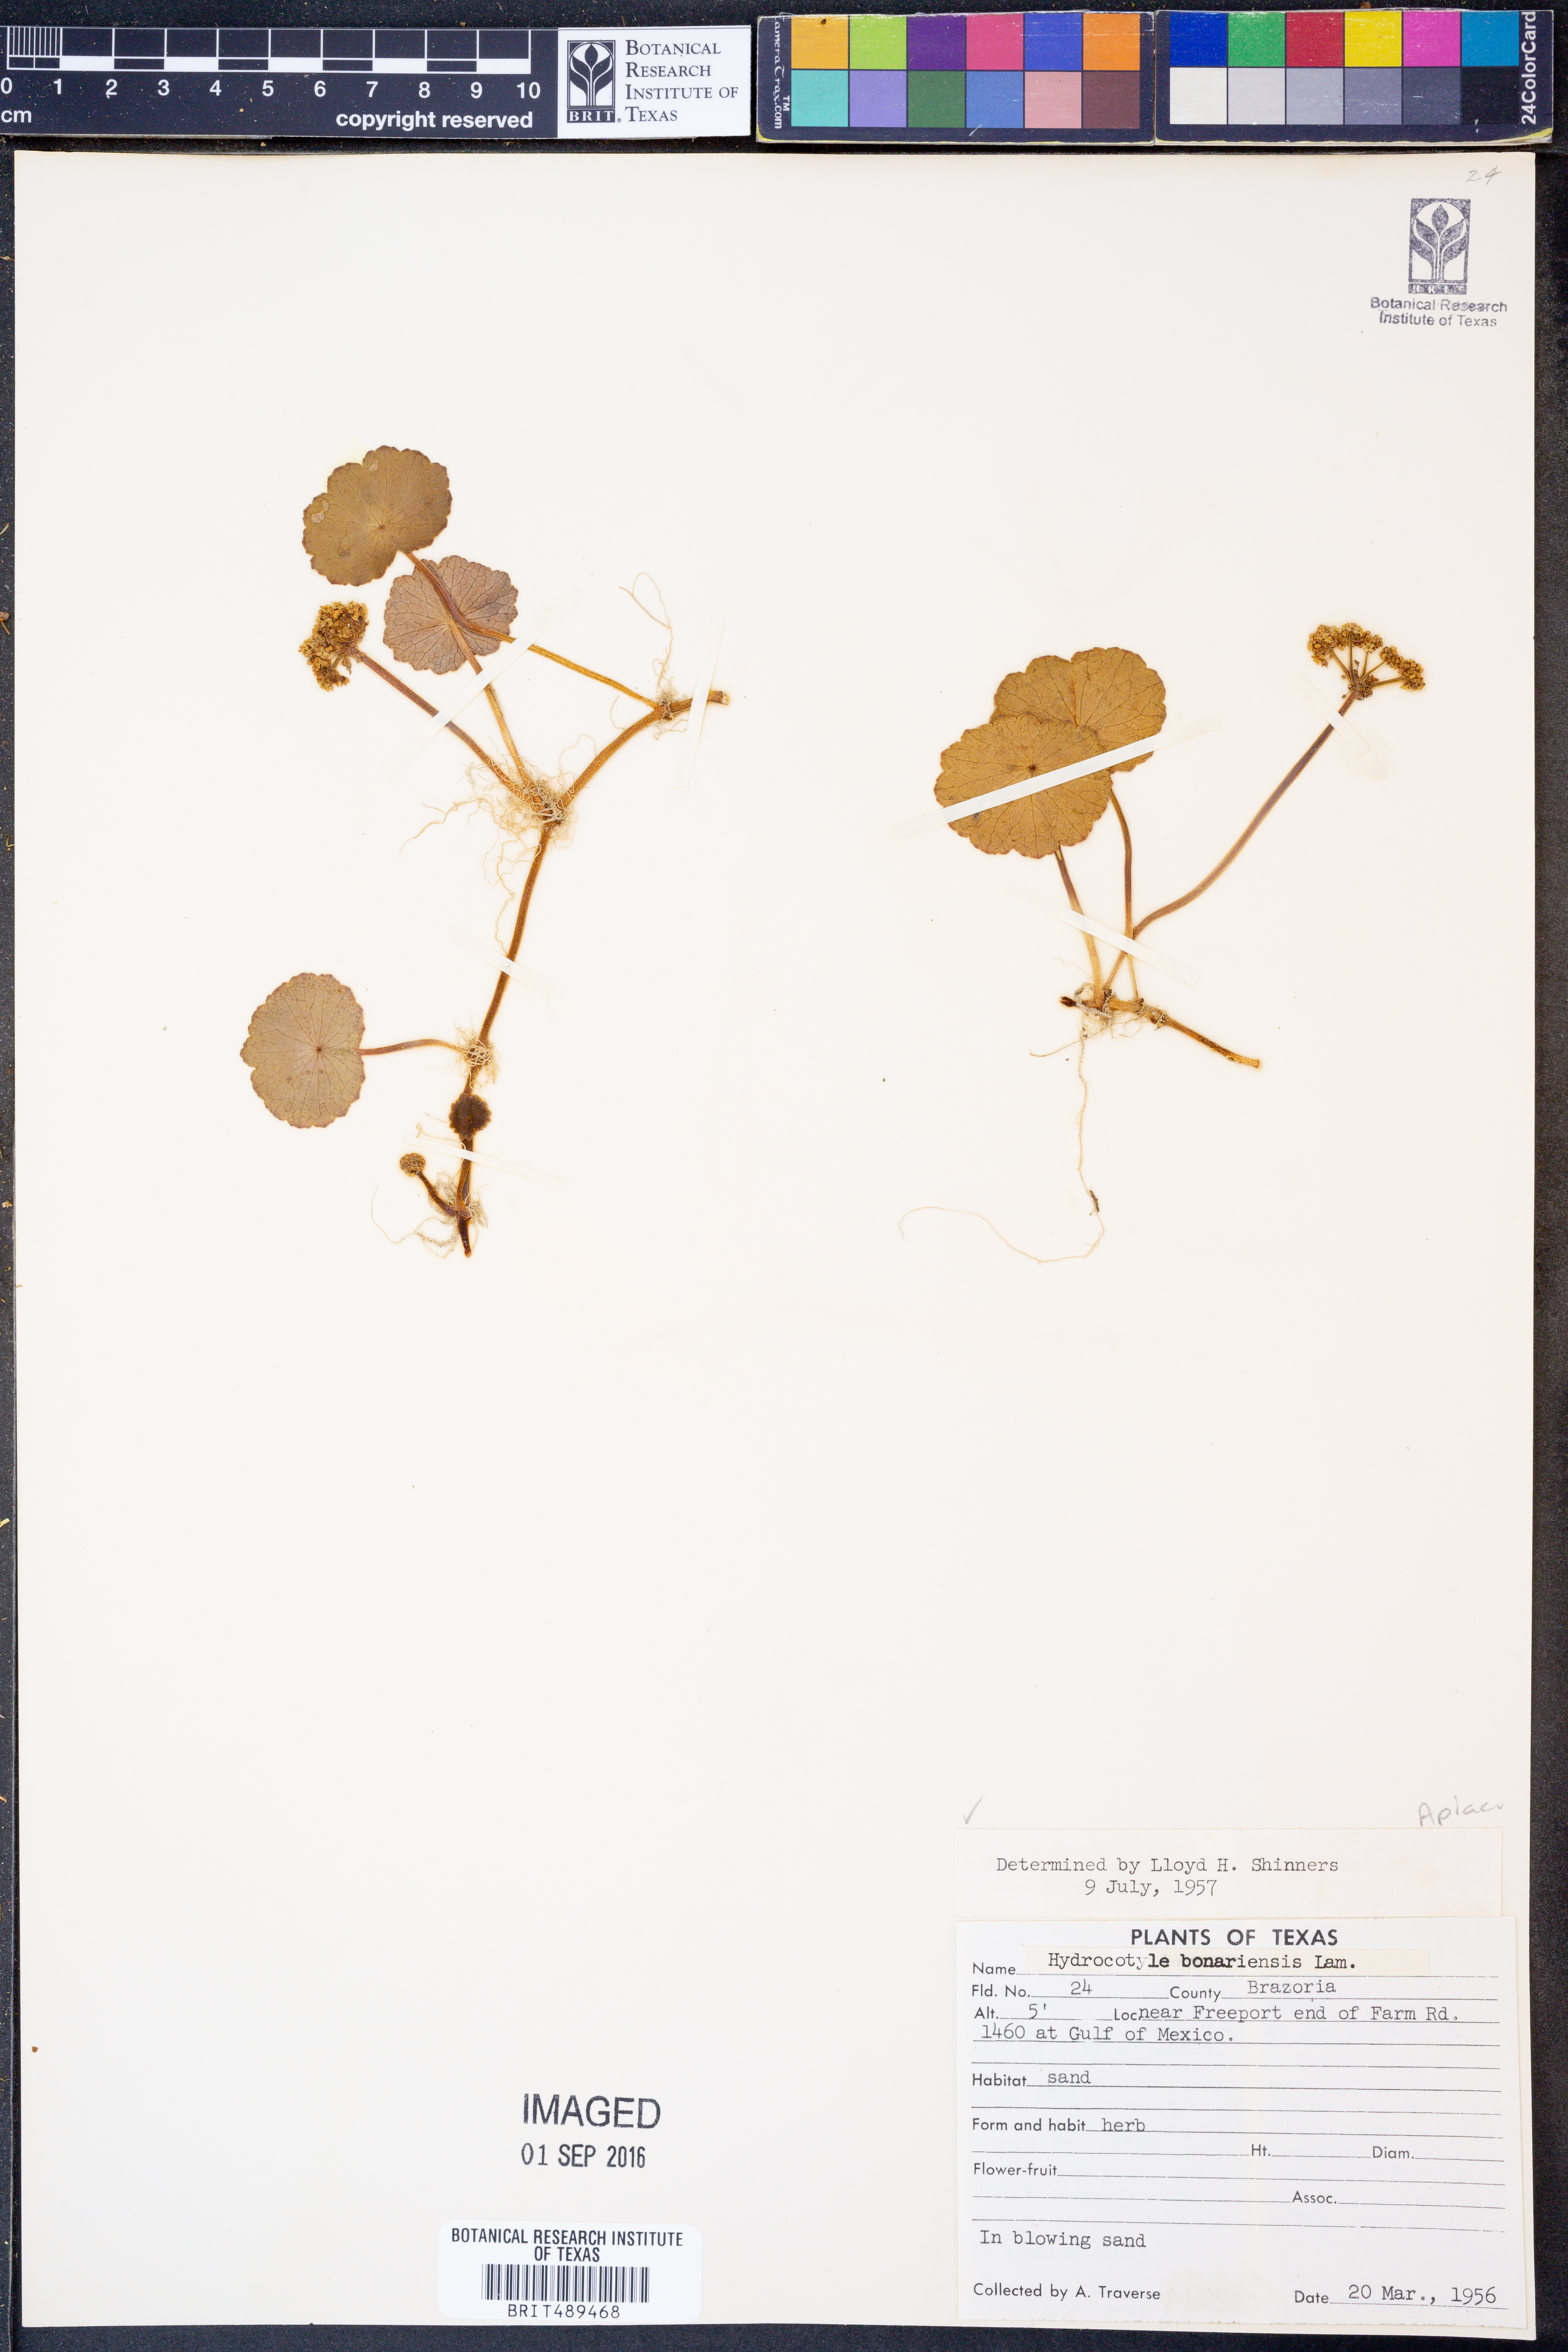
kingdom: Plantae
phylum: Tracheophyta
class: Magnoliopsida
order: Apiales
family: Araliaceae
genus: Hydrocotyle
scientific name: Hydrocotyle bonariensis
